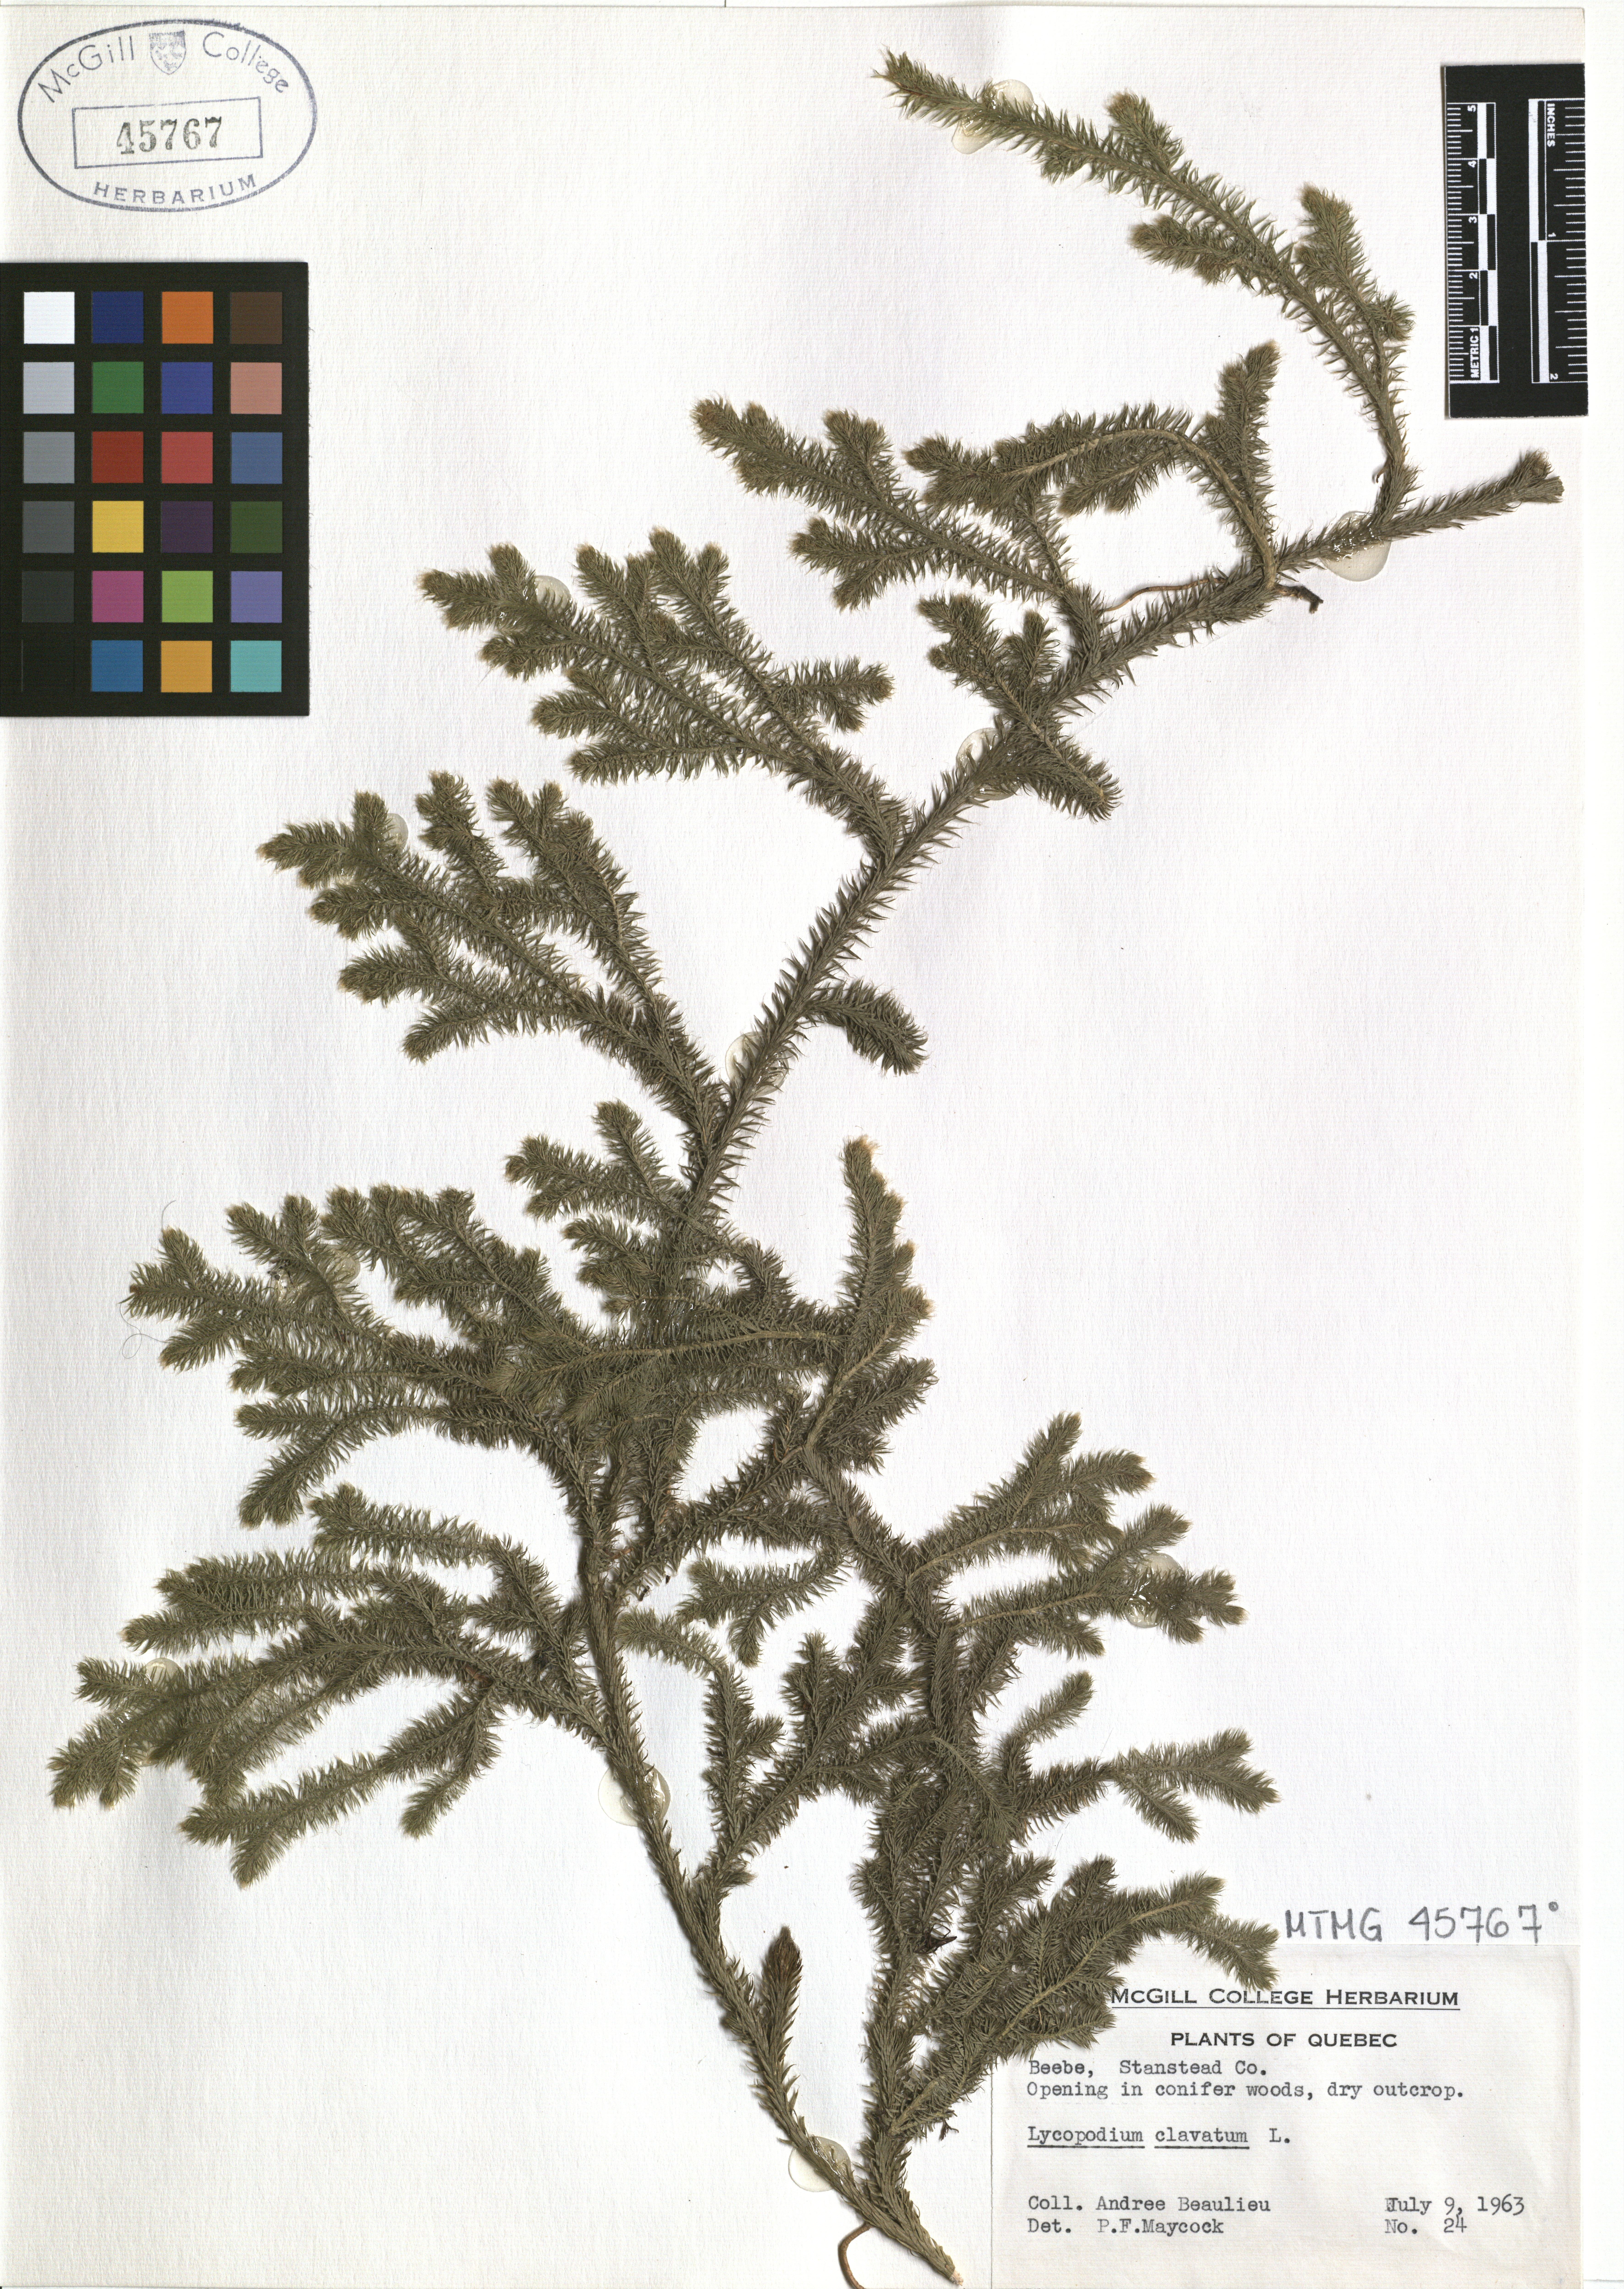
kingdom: Plantae
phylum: Tracheophyta
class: Lycopodiopsida
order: Lycopodiales
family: Lycopodiaceae
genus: Lycopodium
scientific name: Lycopodium clavatum
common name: Stag's-horn clubmoss
